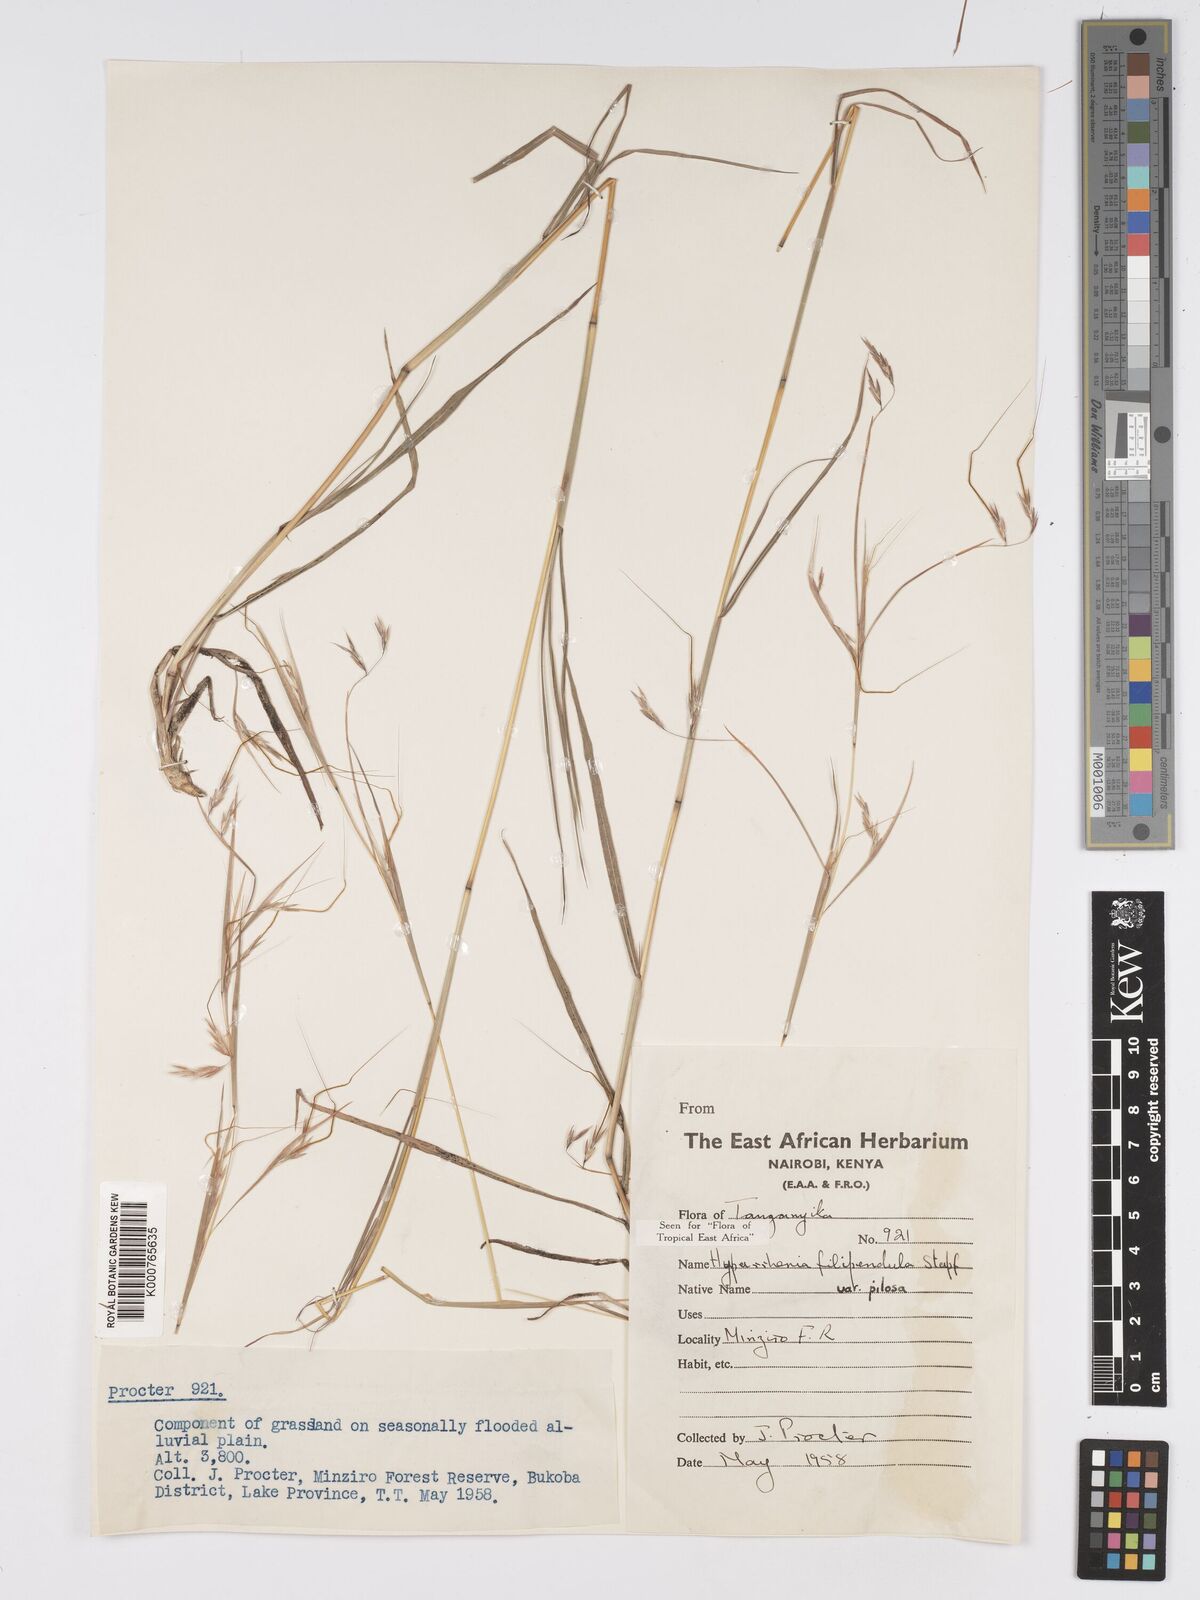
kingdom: Plantae
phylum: Tracheophyta
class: Liliopsida
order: Poales
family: Poaceae
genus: Hyparrhenia
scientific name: Hyparrhenia filipendula
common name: Tambookie grass
